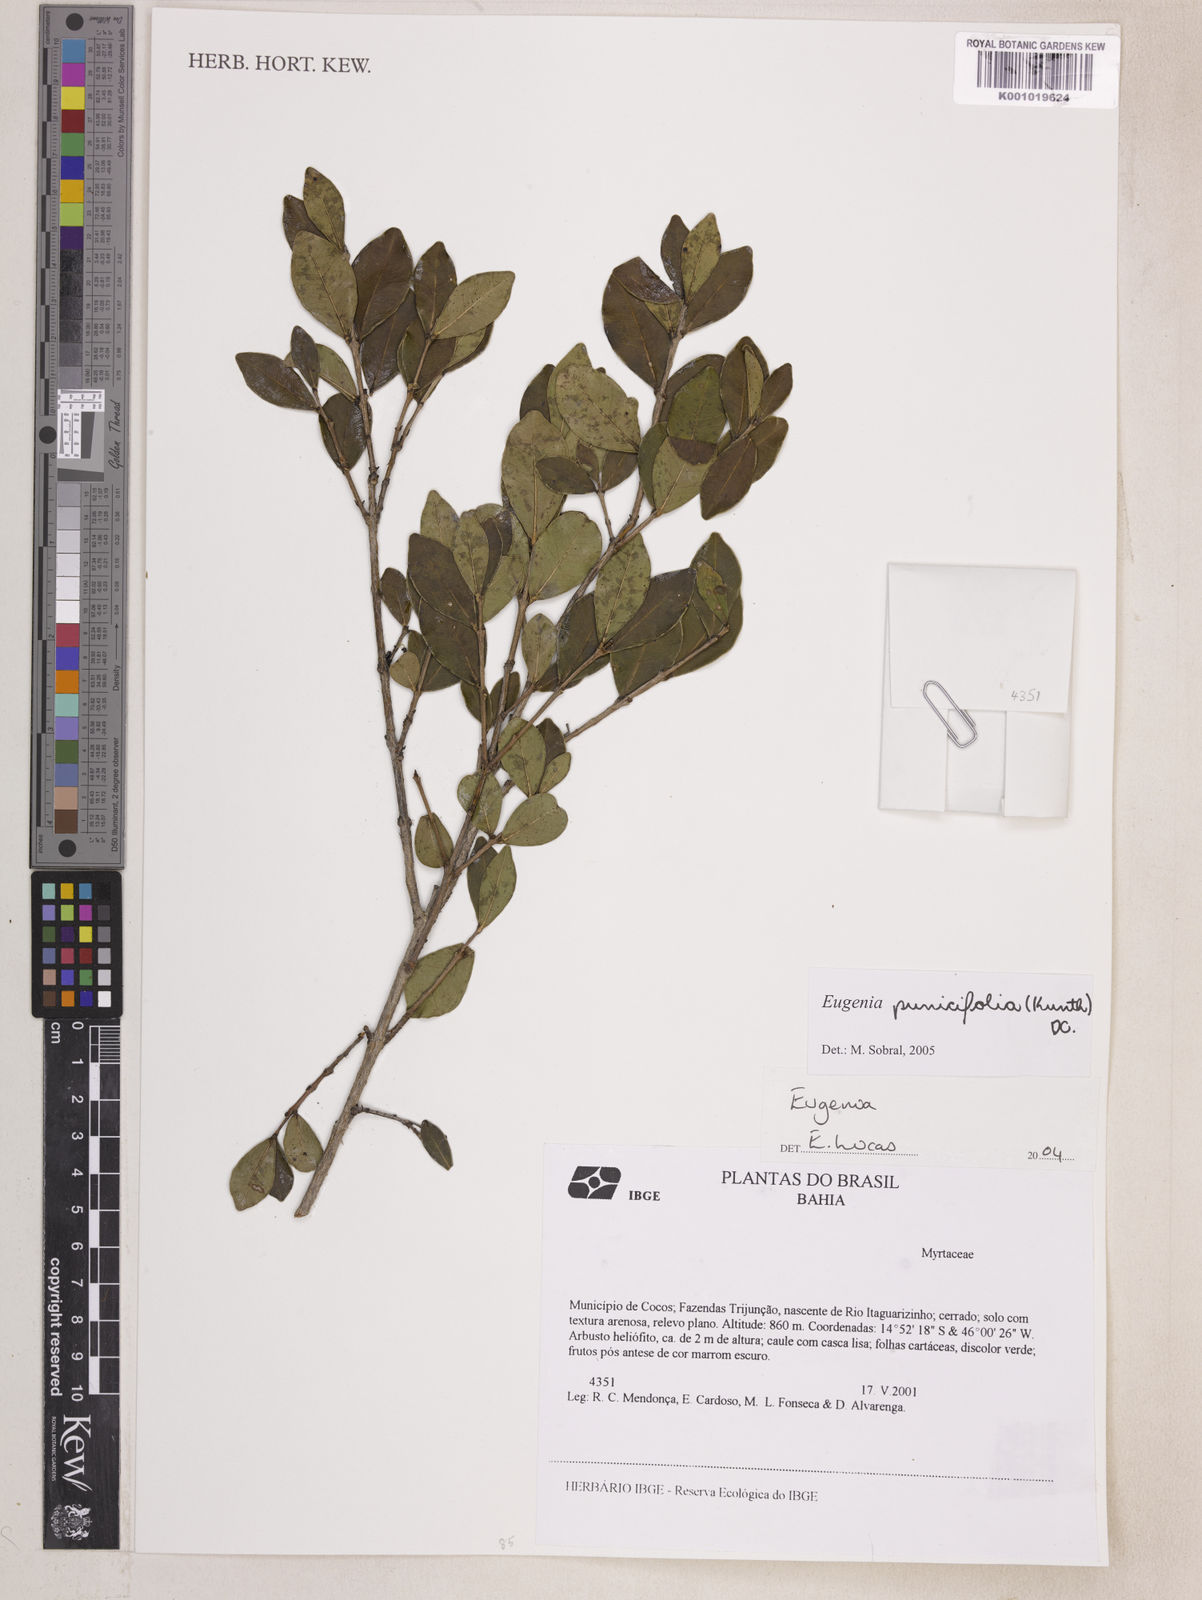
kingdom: Plantae
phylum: Tracheophyta
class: Magnoliopsida
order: Myrtales
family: Myrtaceae
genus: Eugenia
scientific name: Eugenia punicifolia
